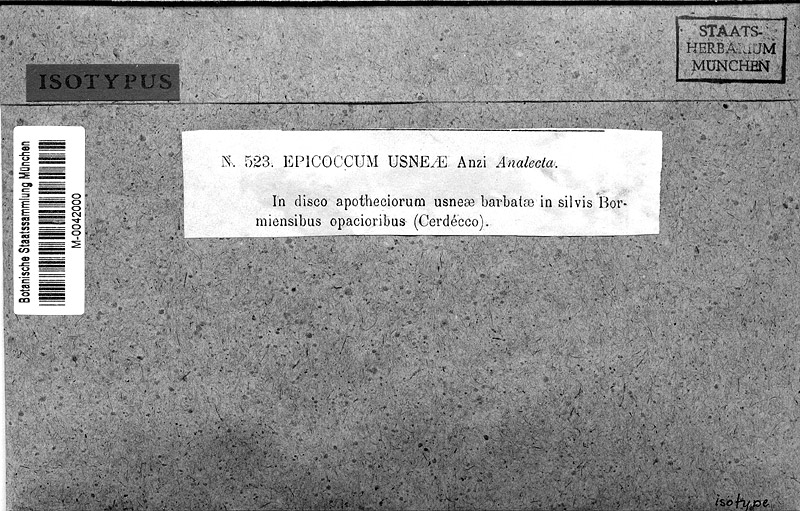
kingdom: Fungi
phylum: Ascomycota
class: Lecanoromycetes
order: Lecanorales
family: Parmeliaceae
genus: Usnea
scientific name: Usnea barbata
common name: Old man's beard lichen
